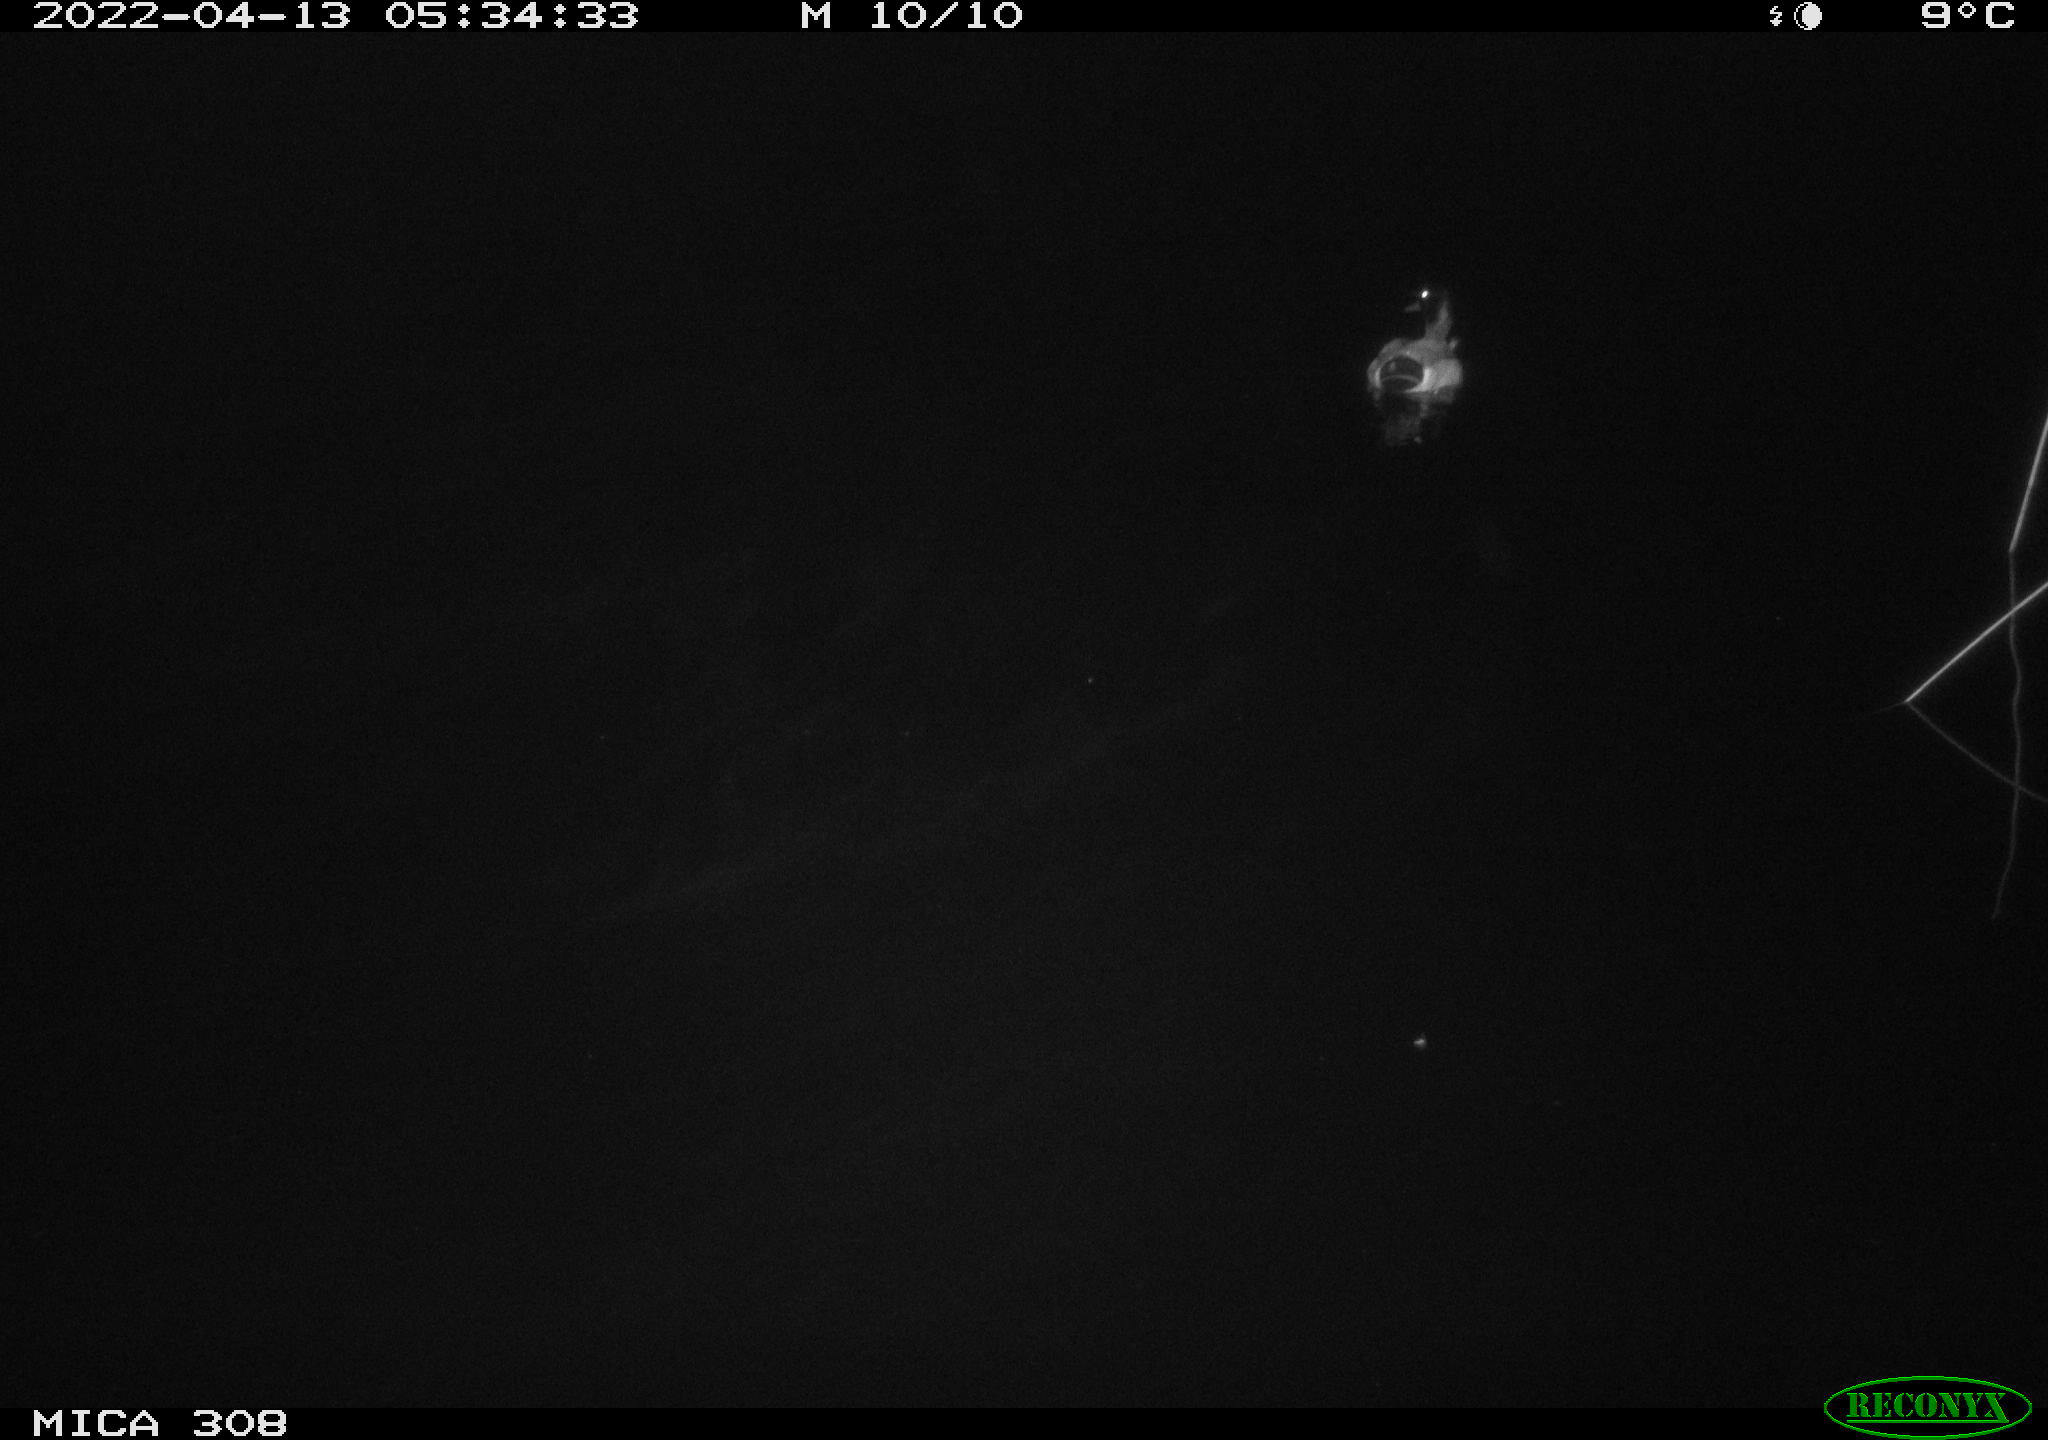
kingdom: Animalia
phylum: Chordata
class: Aves
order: Anseriformes
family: Anatidae
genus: Anas
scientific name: Anas platyrhynchos
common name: Mallard
